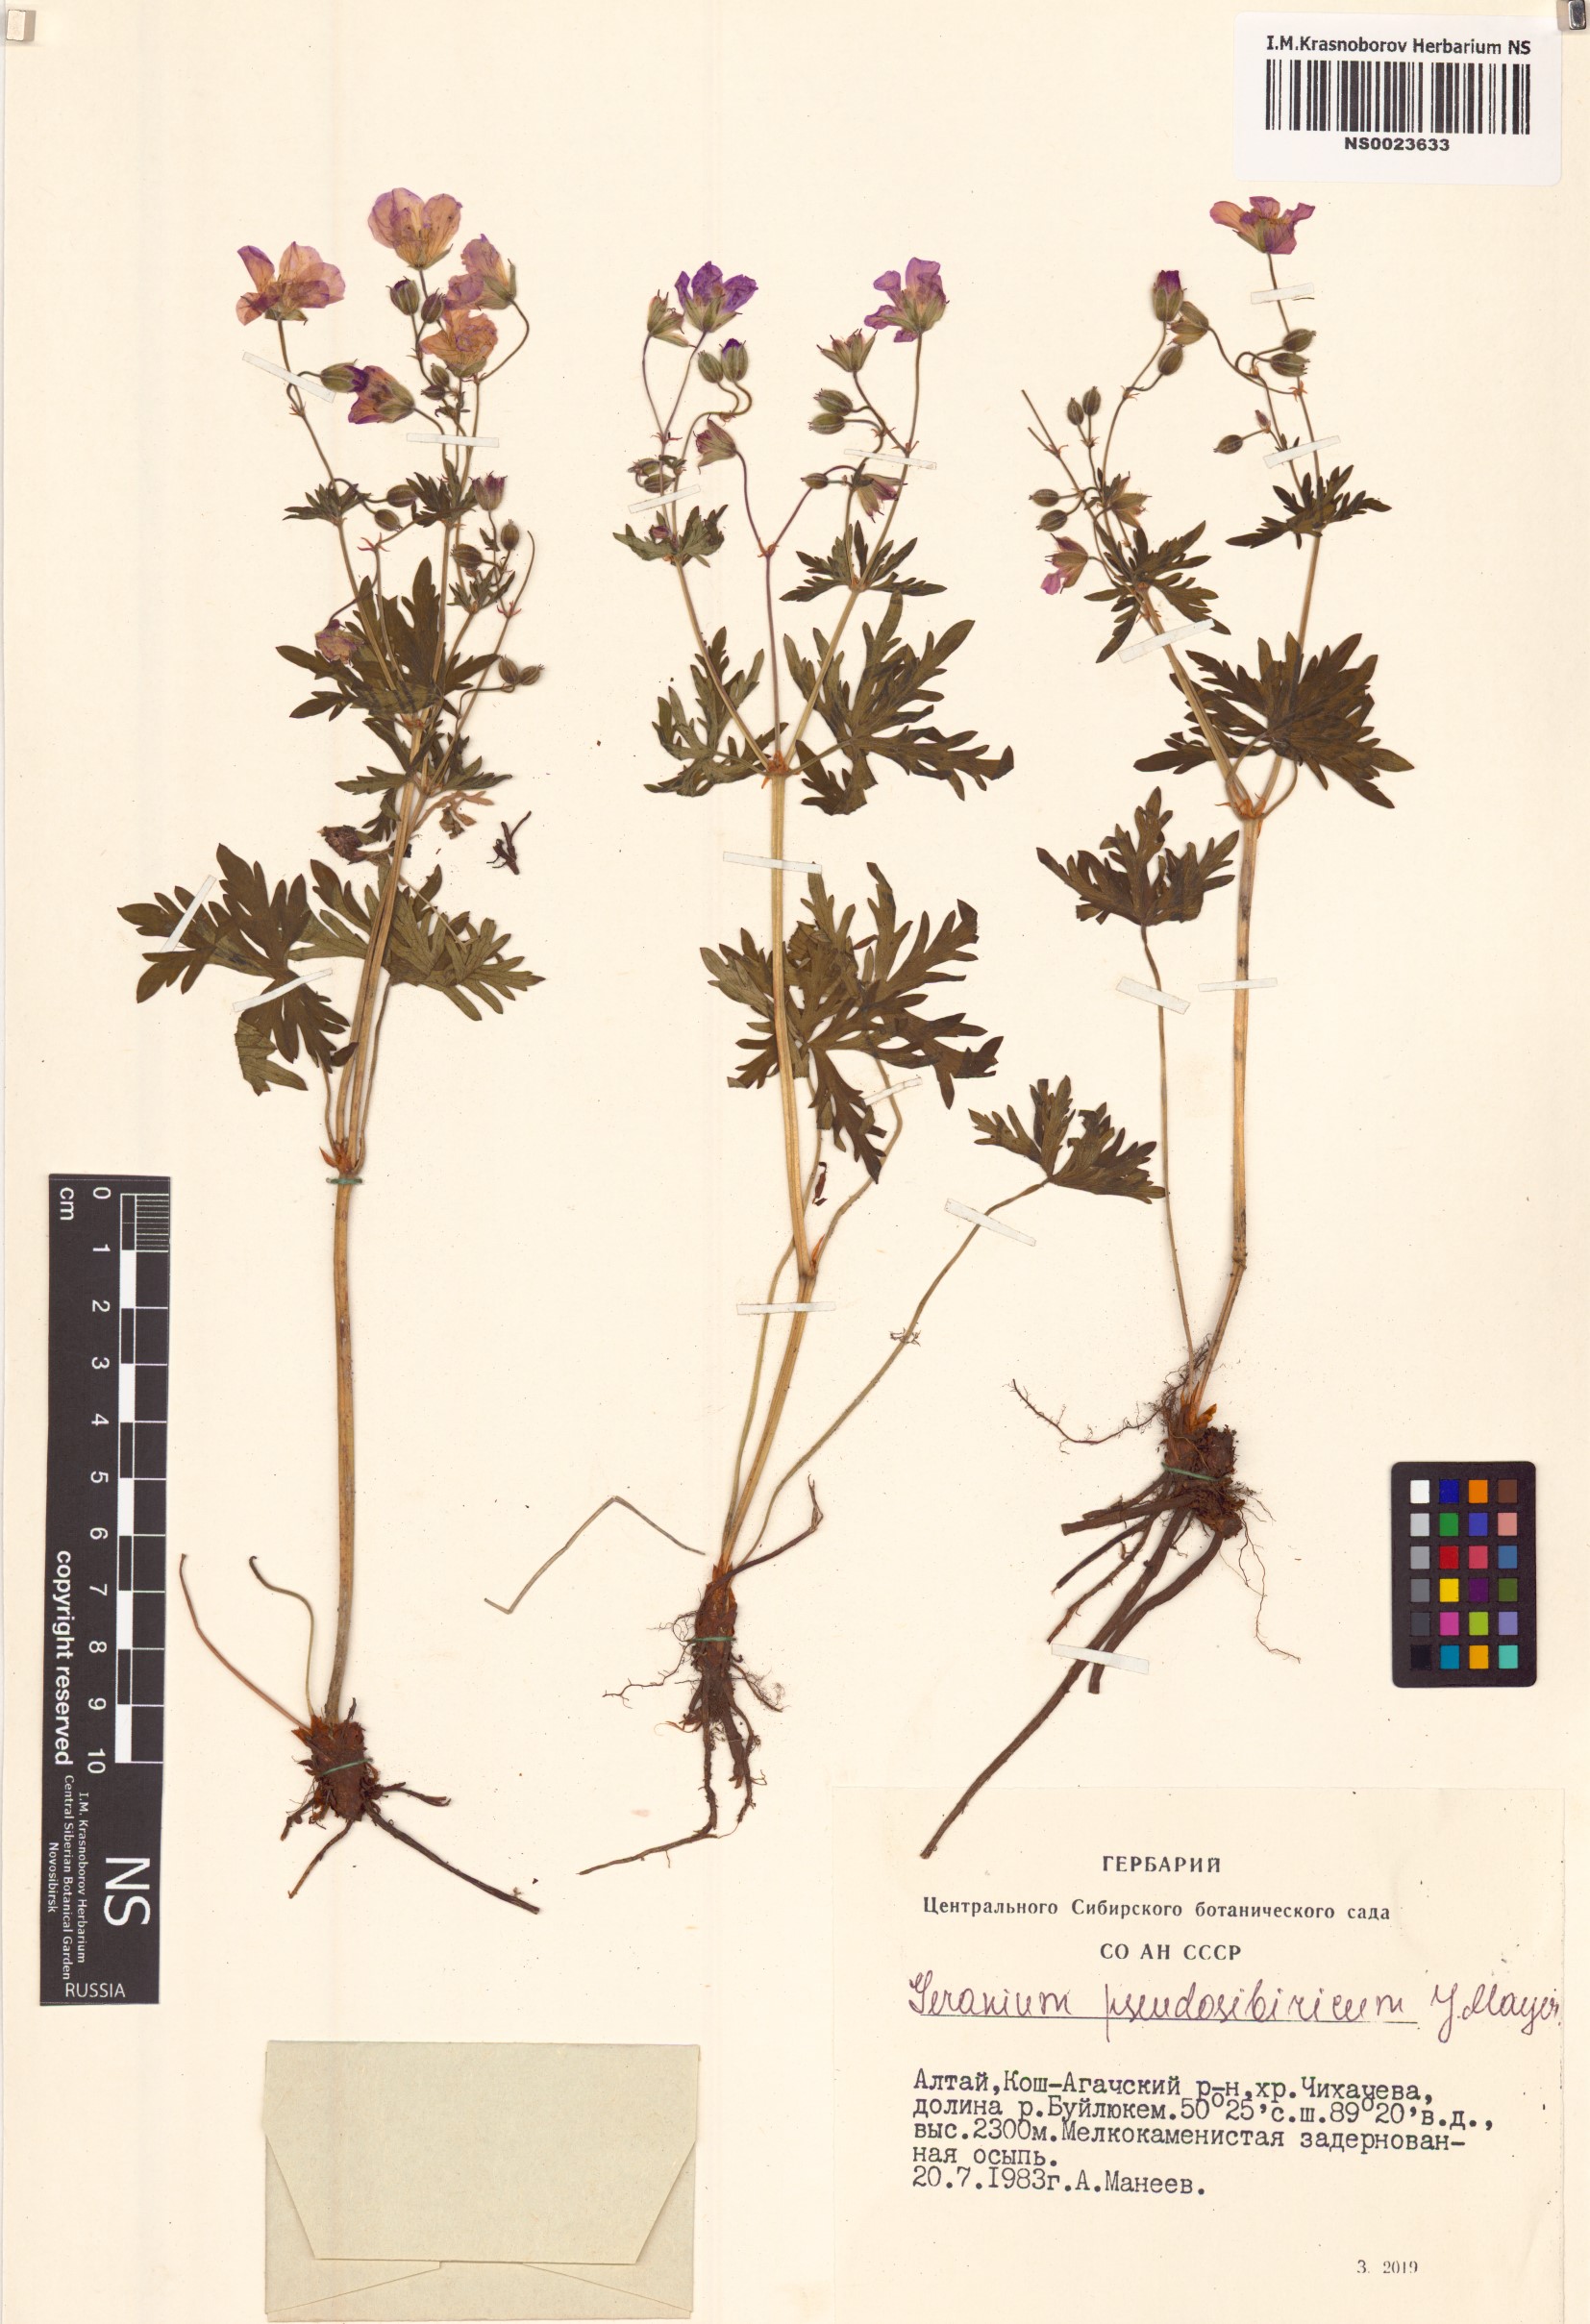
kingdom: Plantae
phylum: Tracheophyta
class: Magnoliopsida
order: Geraniales
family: Geraniaceae
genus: Geranium
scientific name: Geranium pseudosibiricum
